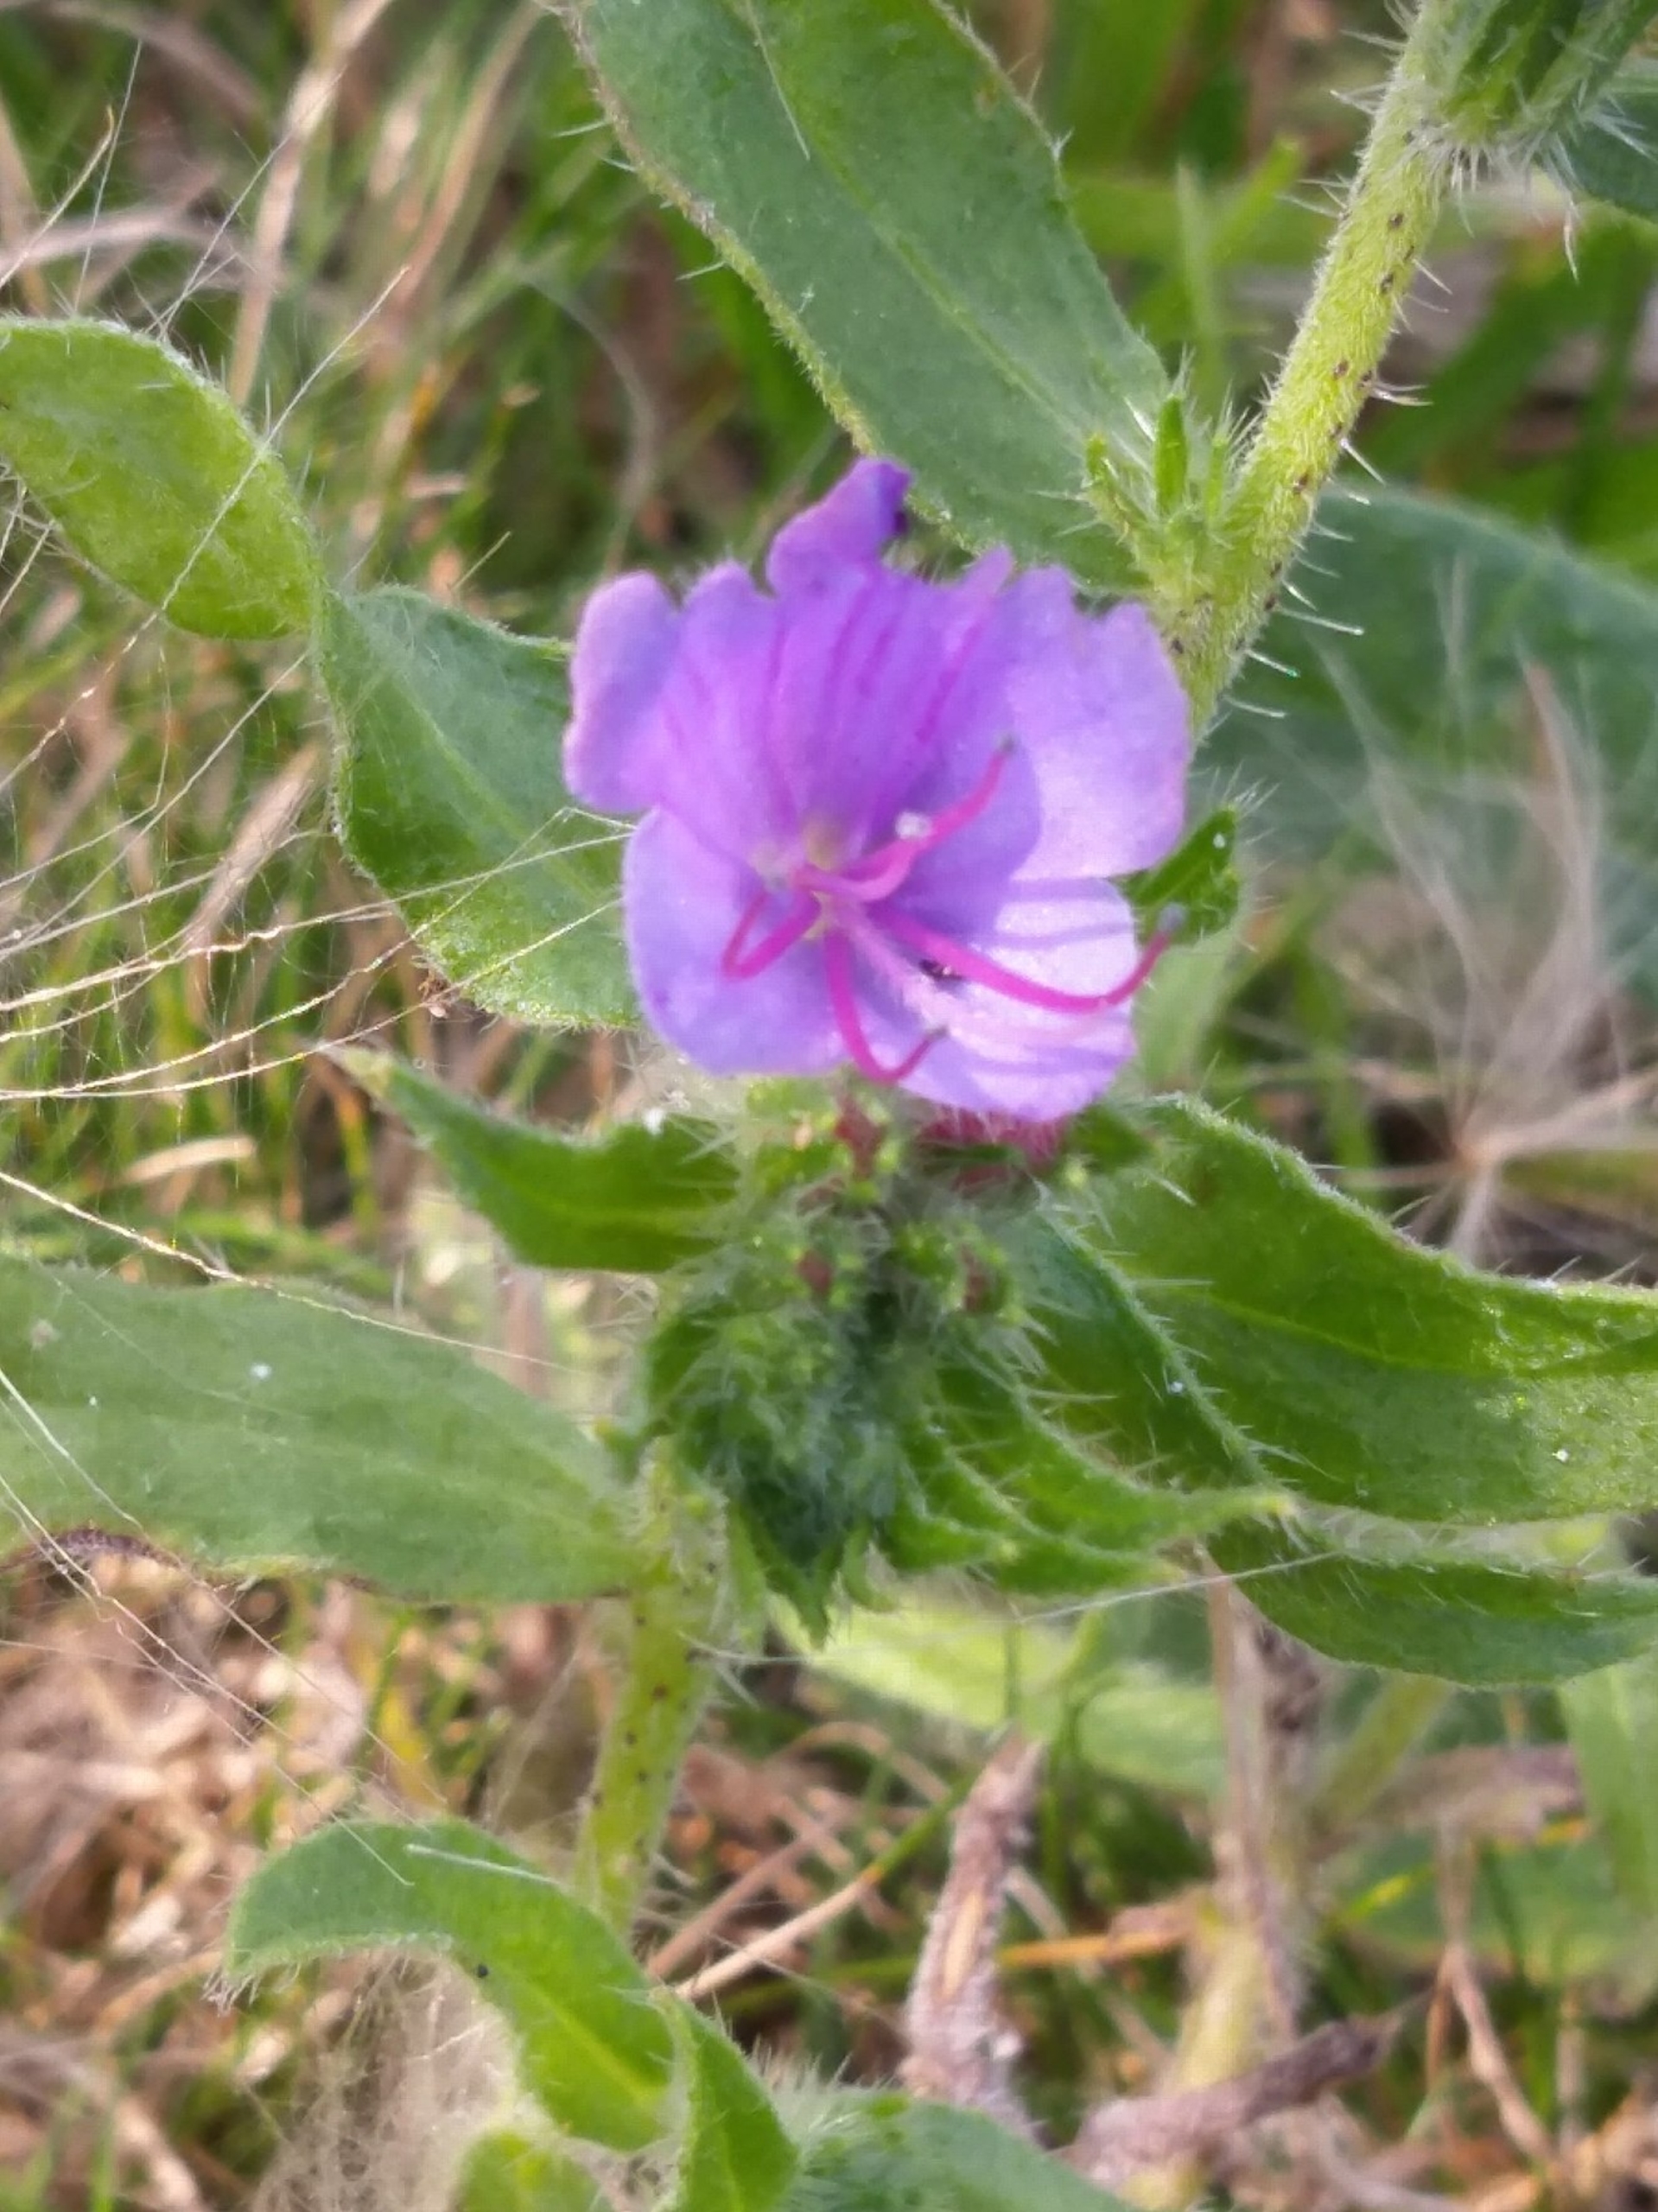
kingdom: Plantae
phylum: Tracheophyta
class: Magnoliopsida
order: Boraginales
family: Boraginaceae
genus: Echium
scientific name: Echium plantagineum
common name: Vejbred-slangehoved
